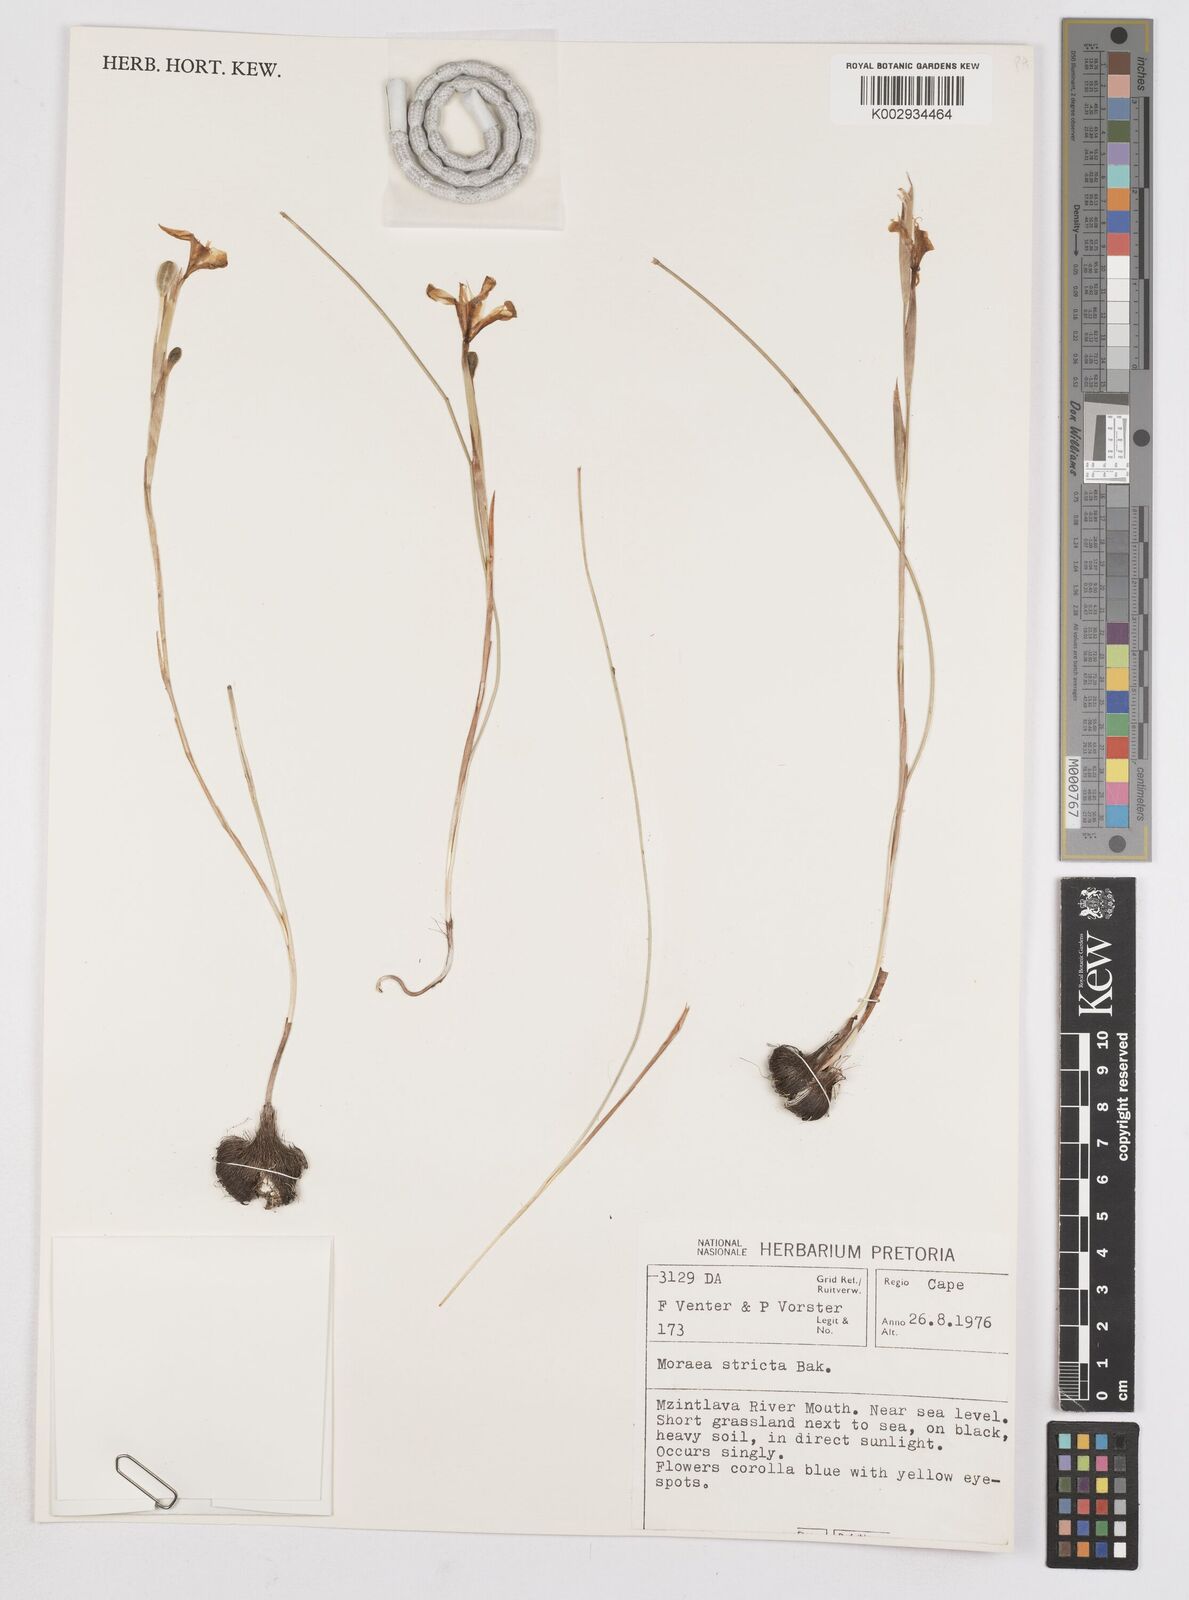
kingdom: Plantae
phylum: Tracheophyta
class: Liliopsida
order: Asparagales
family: Iridaceae
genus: Moraea
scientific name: Moraea stricta
